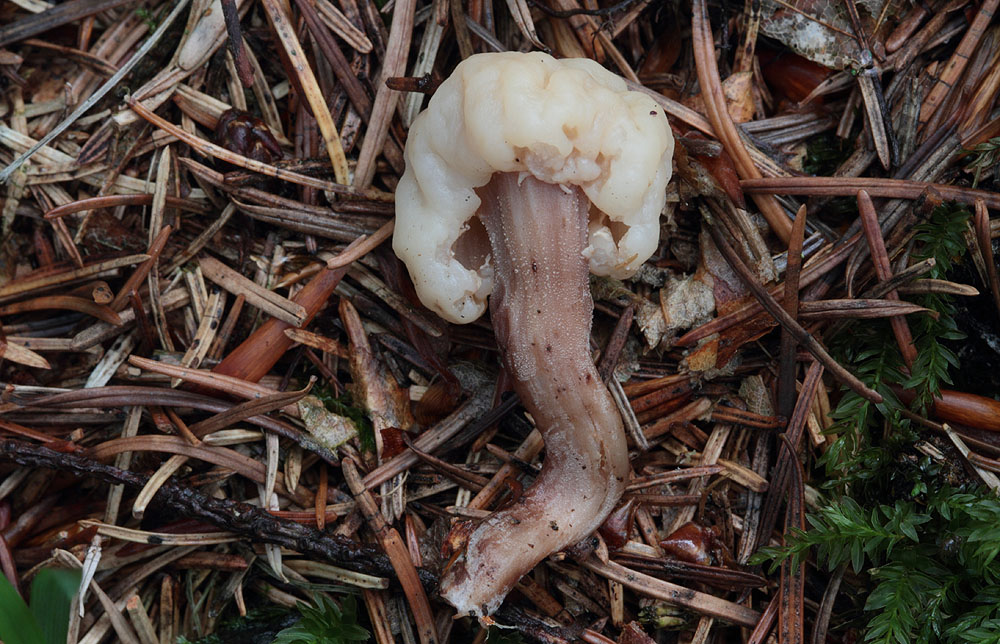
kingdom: Fungi
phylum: Ascomycota
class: Leotiomycetes
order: Rhytismatales
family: Cudoniaceae
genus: Cudonia
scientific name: Cudonia circinans
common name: hekserings-hjelmmorkel
